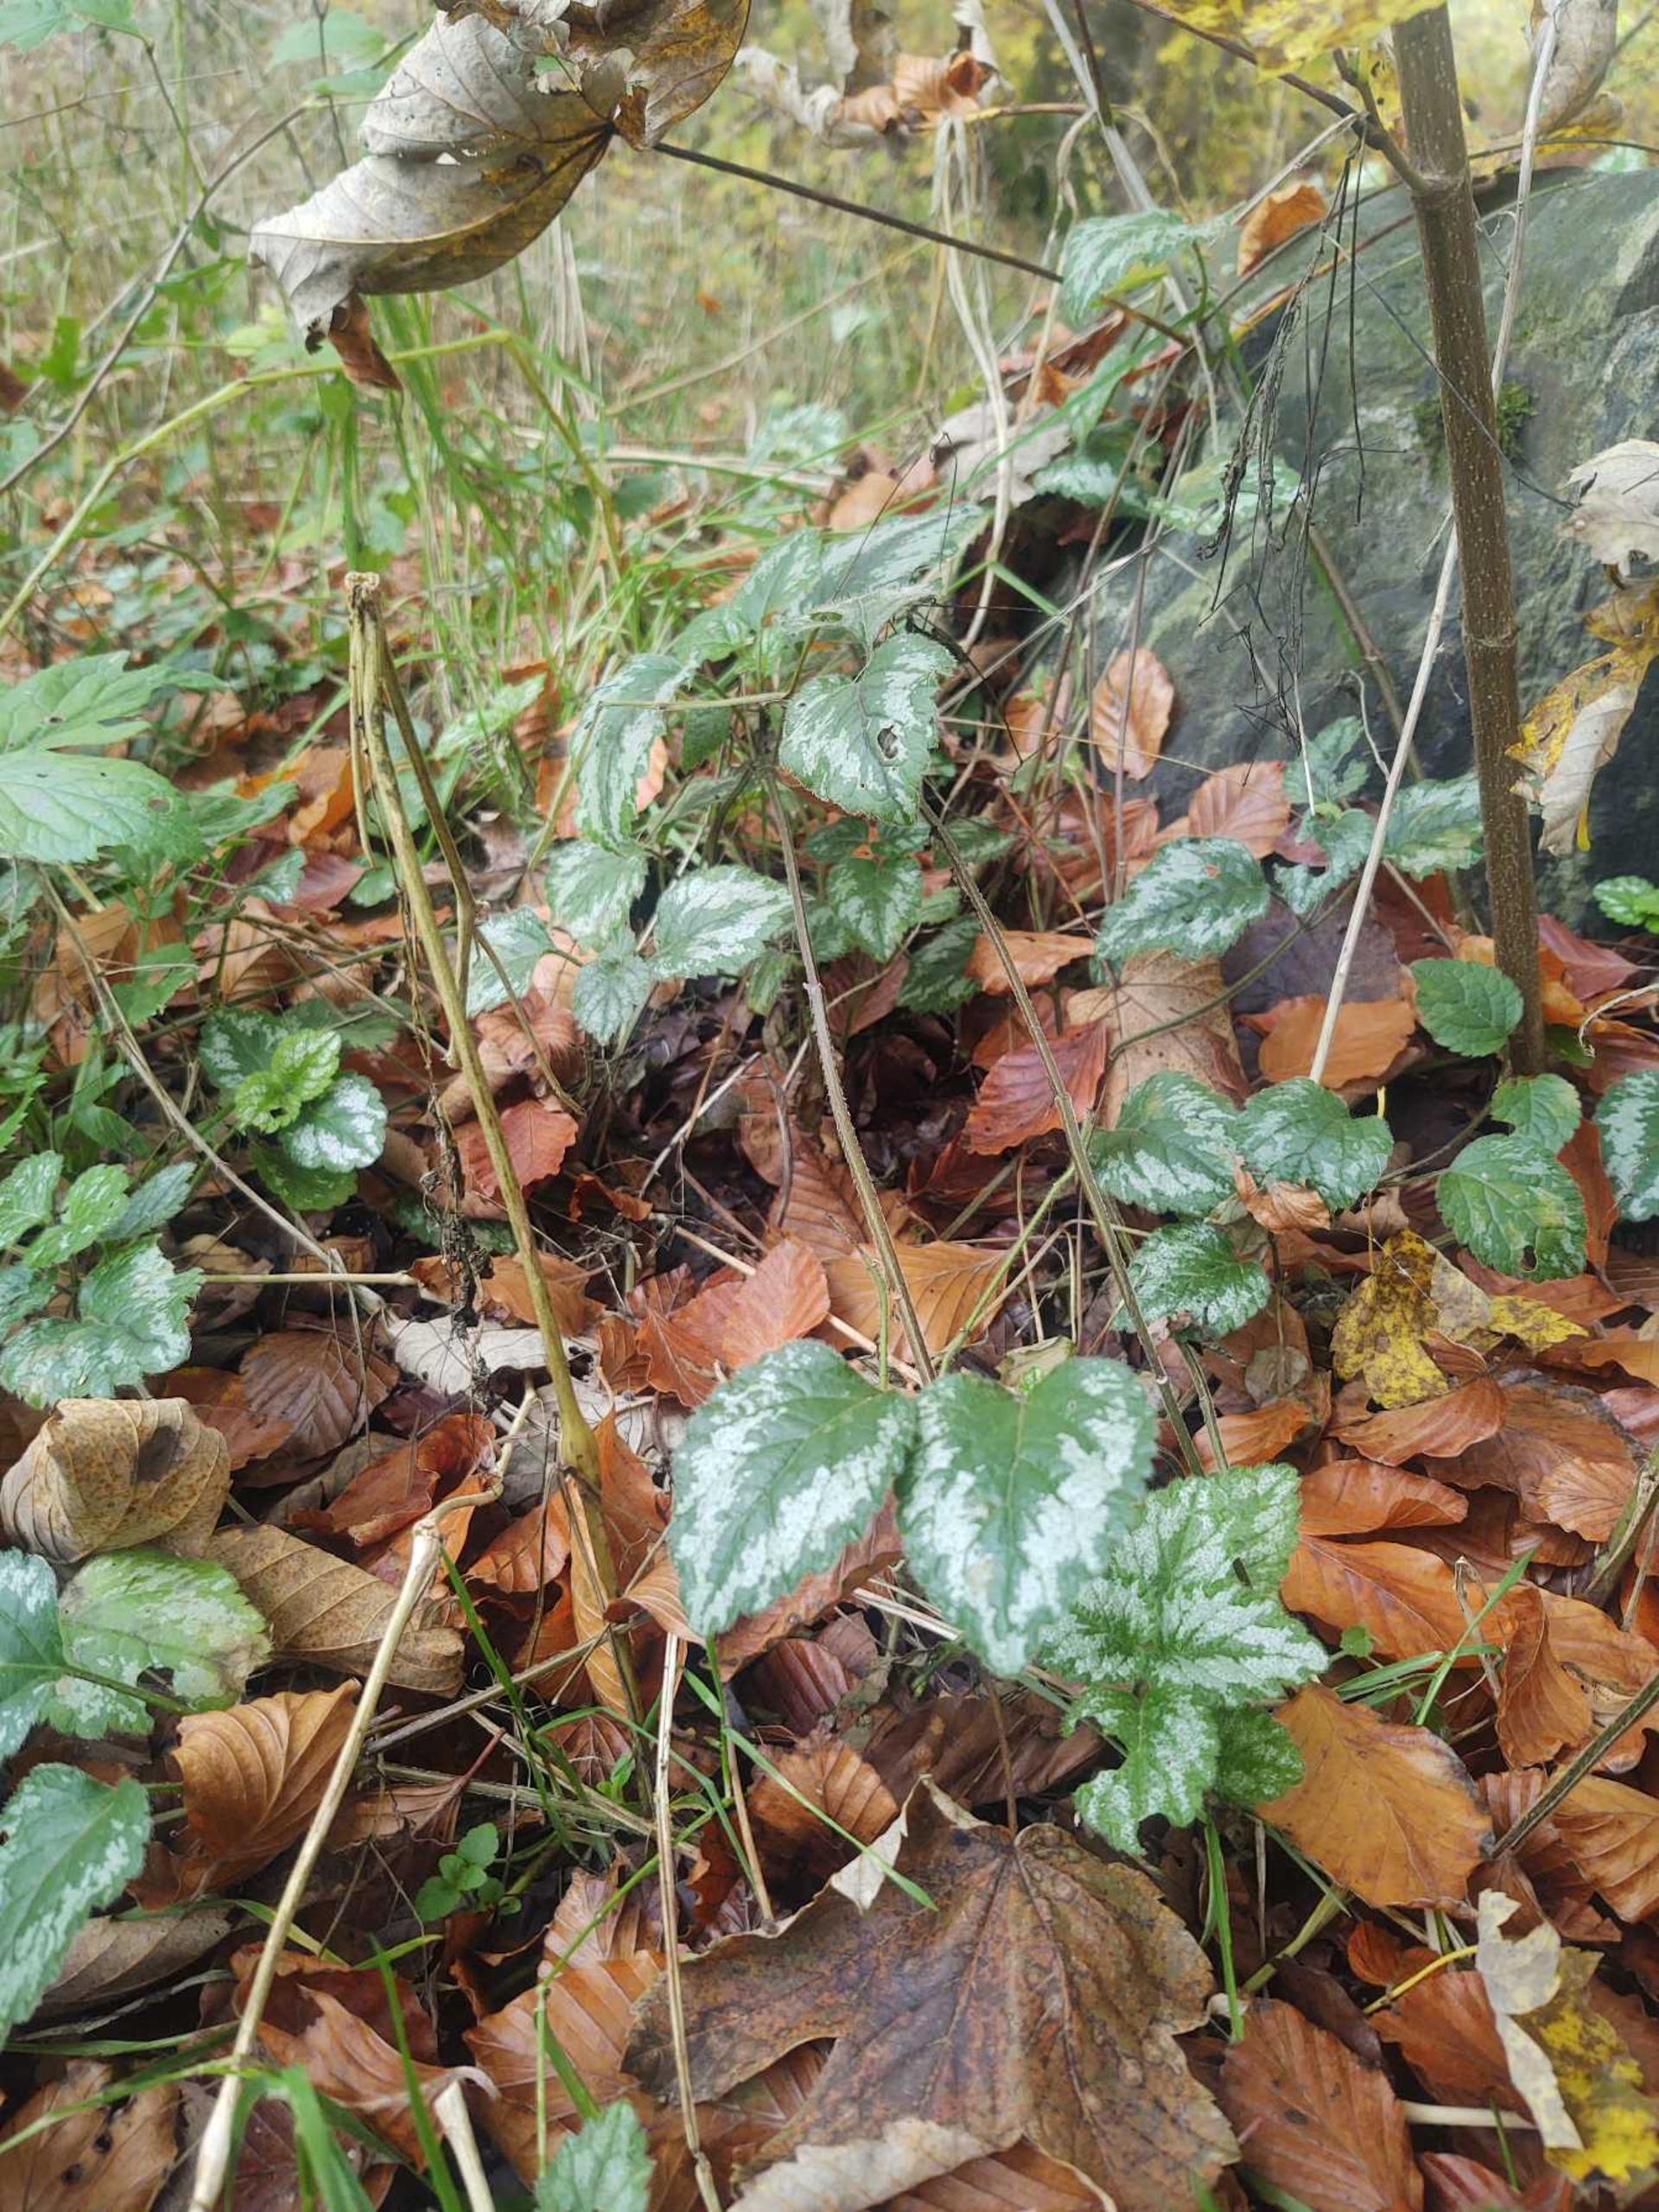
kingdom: Plantae
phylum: Tracheophyta
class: Magnoliopsida
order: Lamiales
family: Lamiaceae
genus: Lamium
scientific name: Lamium galeobdolon
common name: Have-guldnælde
